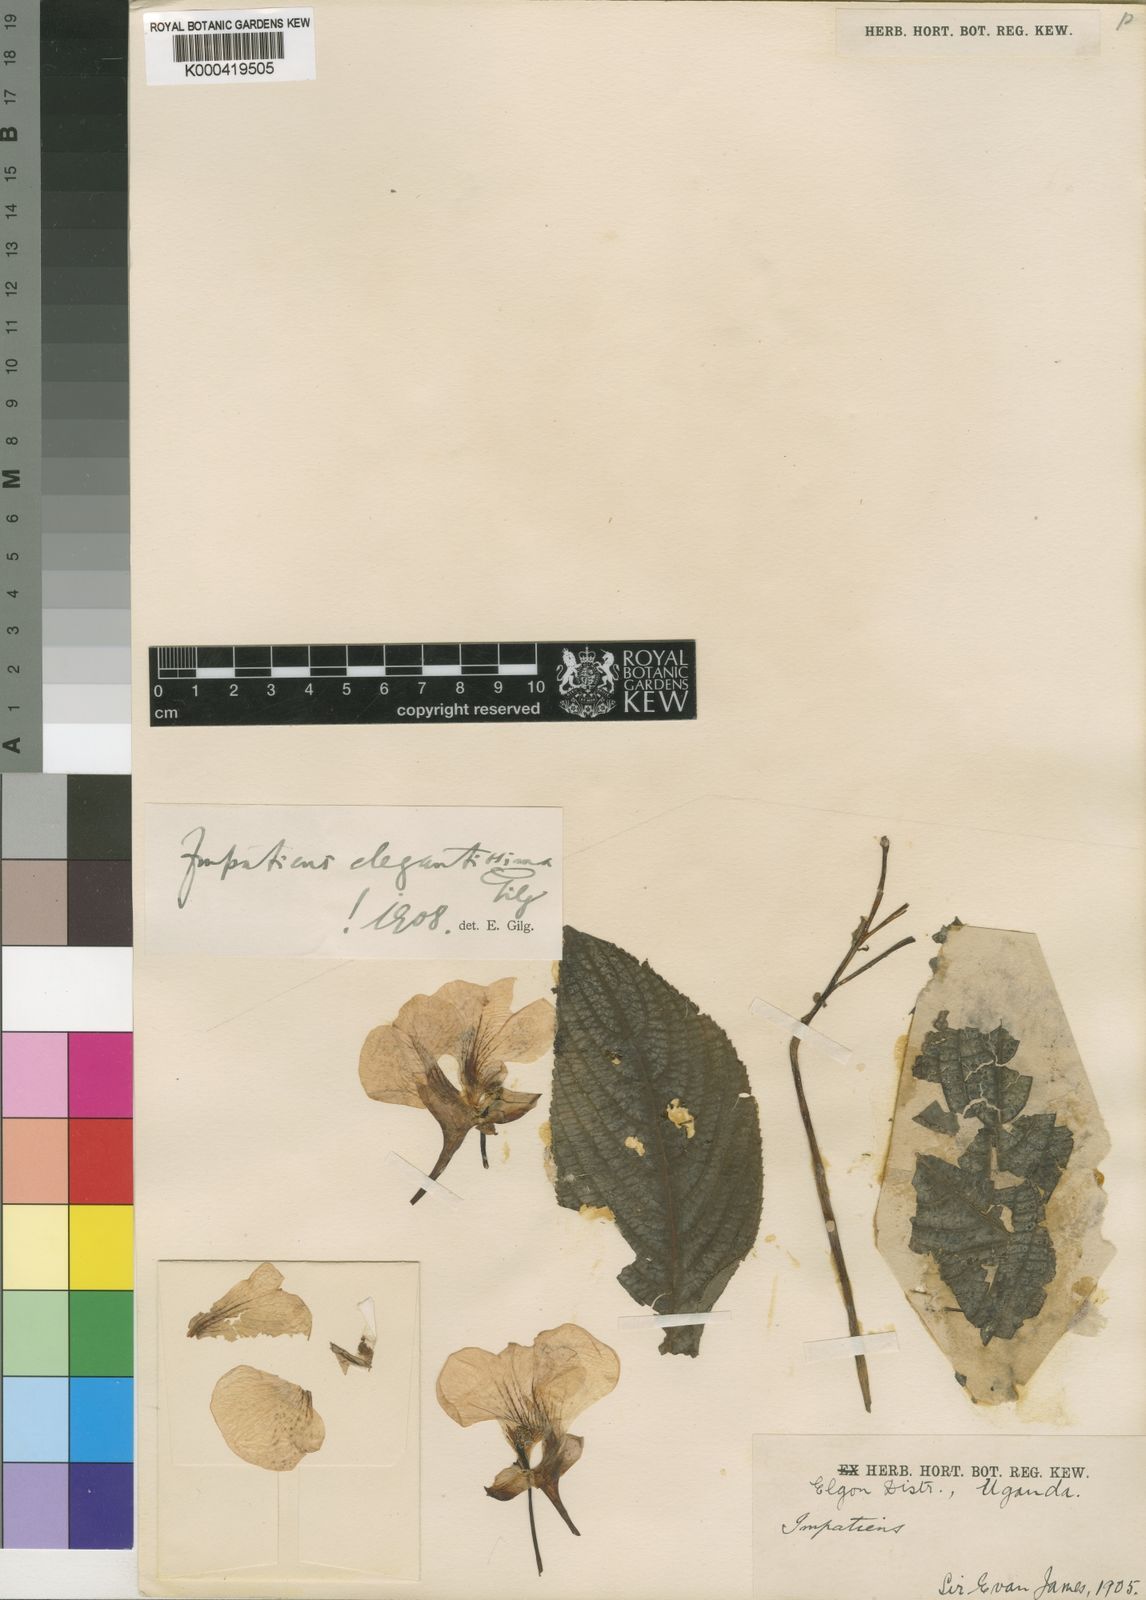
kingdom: Plantae
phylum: Tracheophyta
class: Magnoliopsida
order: Ericales
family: Balsaminaceae
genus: Impatiens
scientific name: Impatiens tinctoria
